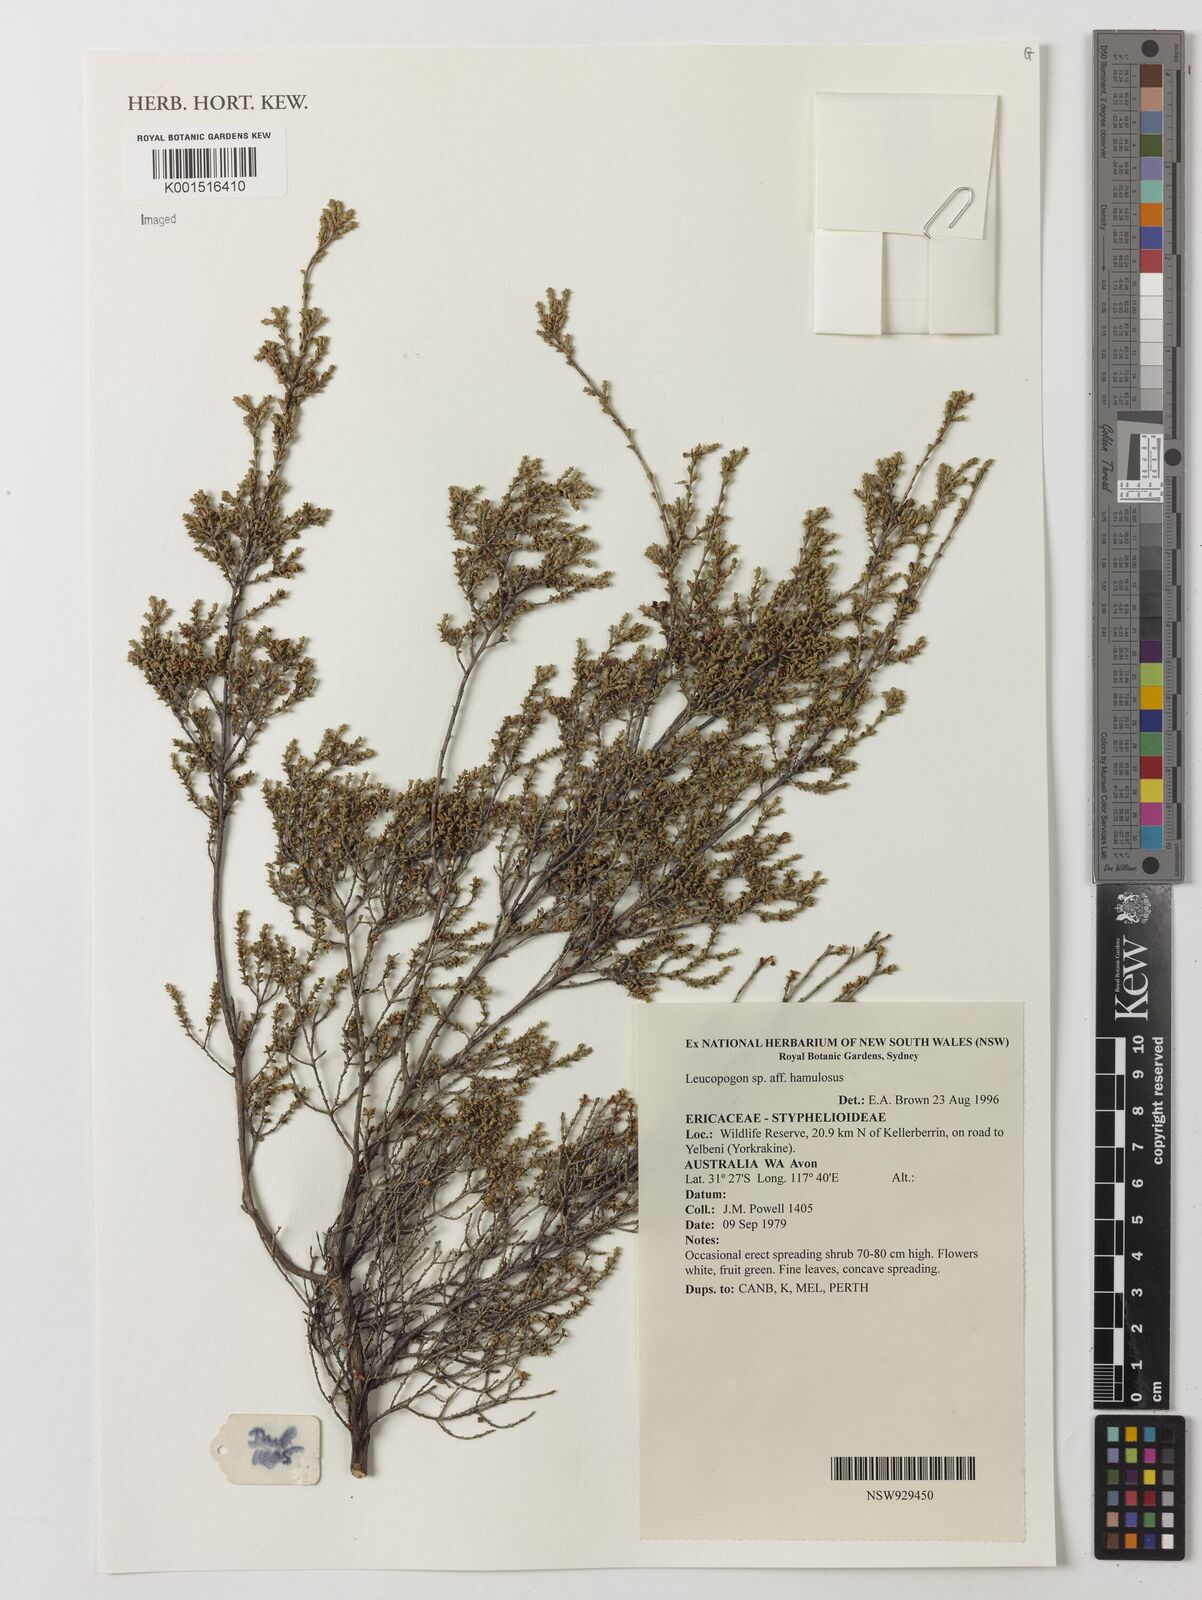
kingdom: Plantae
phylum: Tracheophyta
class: Magnoliopsida
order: Ericales
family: Ericaceae
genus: Styphelia
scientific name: Styphelia hamulosa
